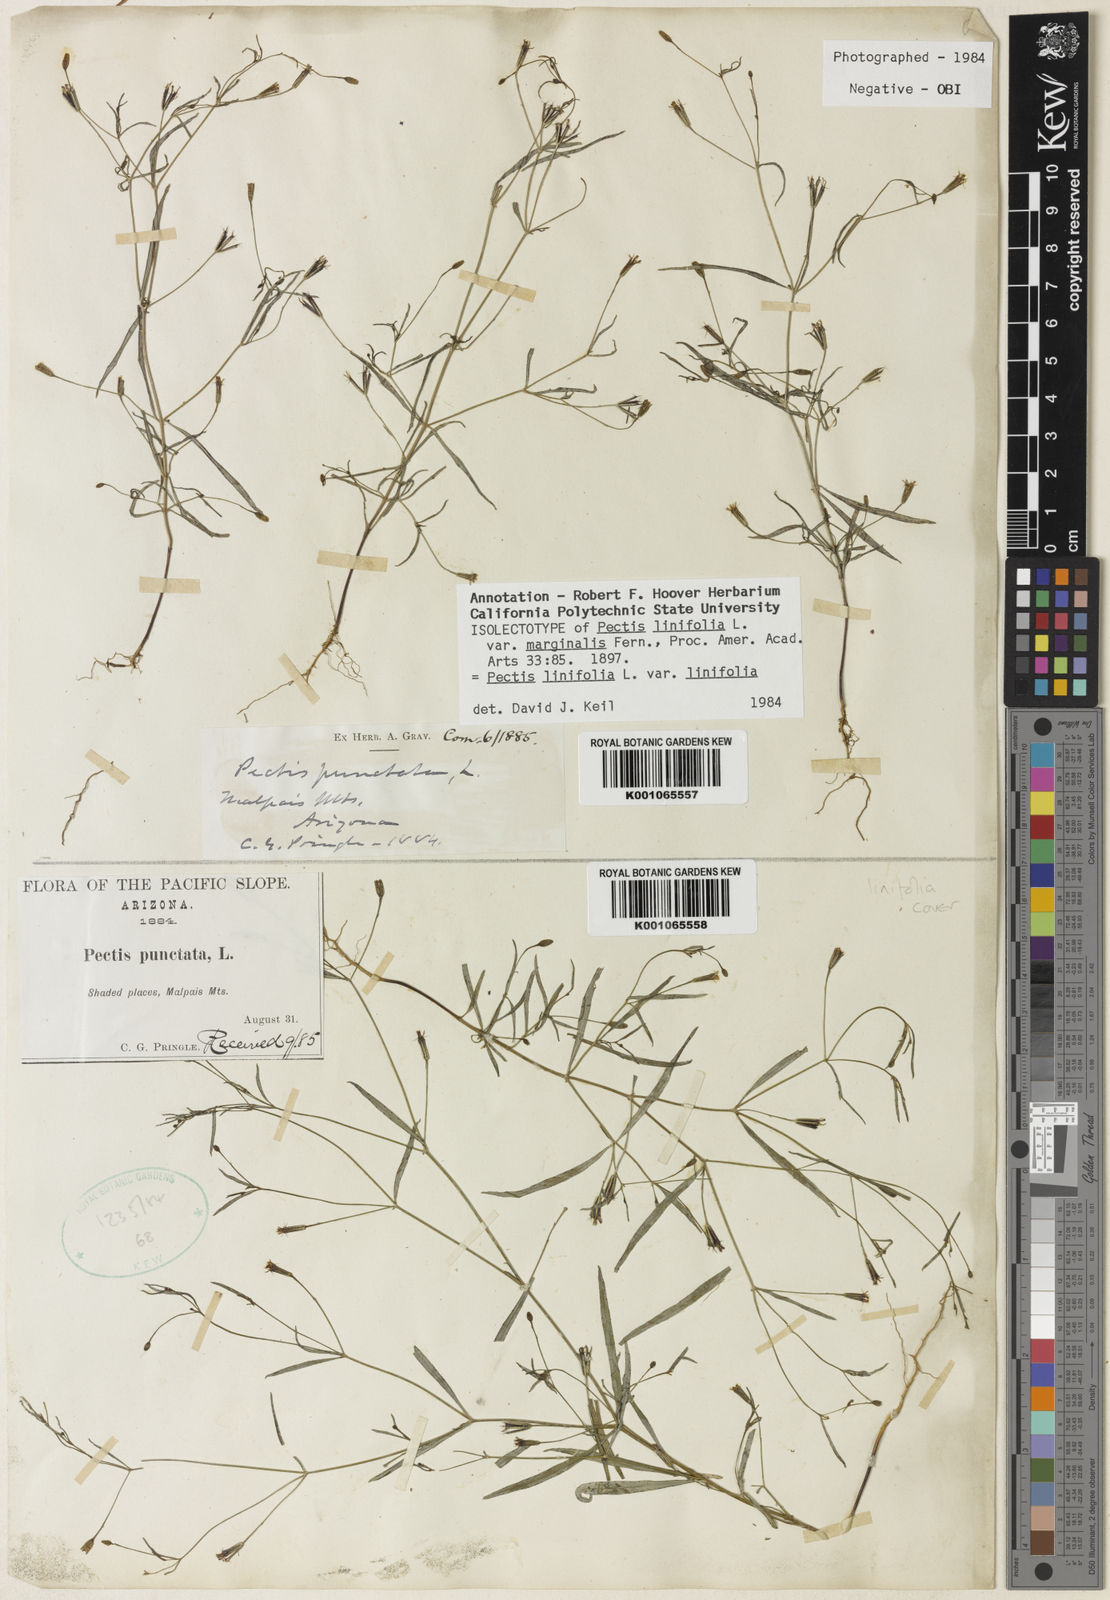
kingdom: Plantae
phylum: Tracheophyta
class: Magnoliopsida
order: Asterales
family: Asteraceae
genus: Pectis
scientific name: Pectis linifolia
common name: Romero macho
